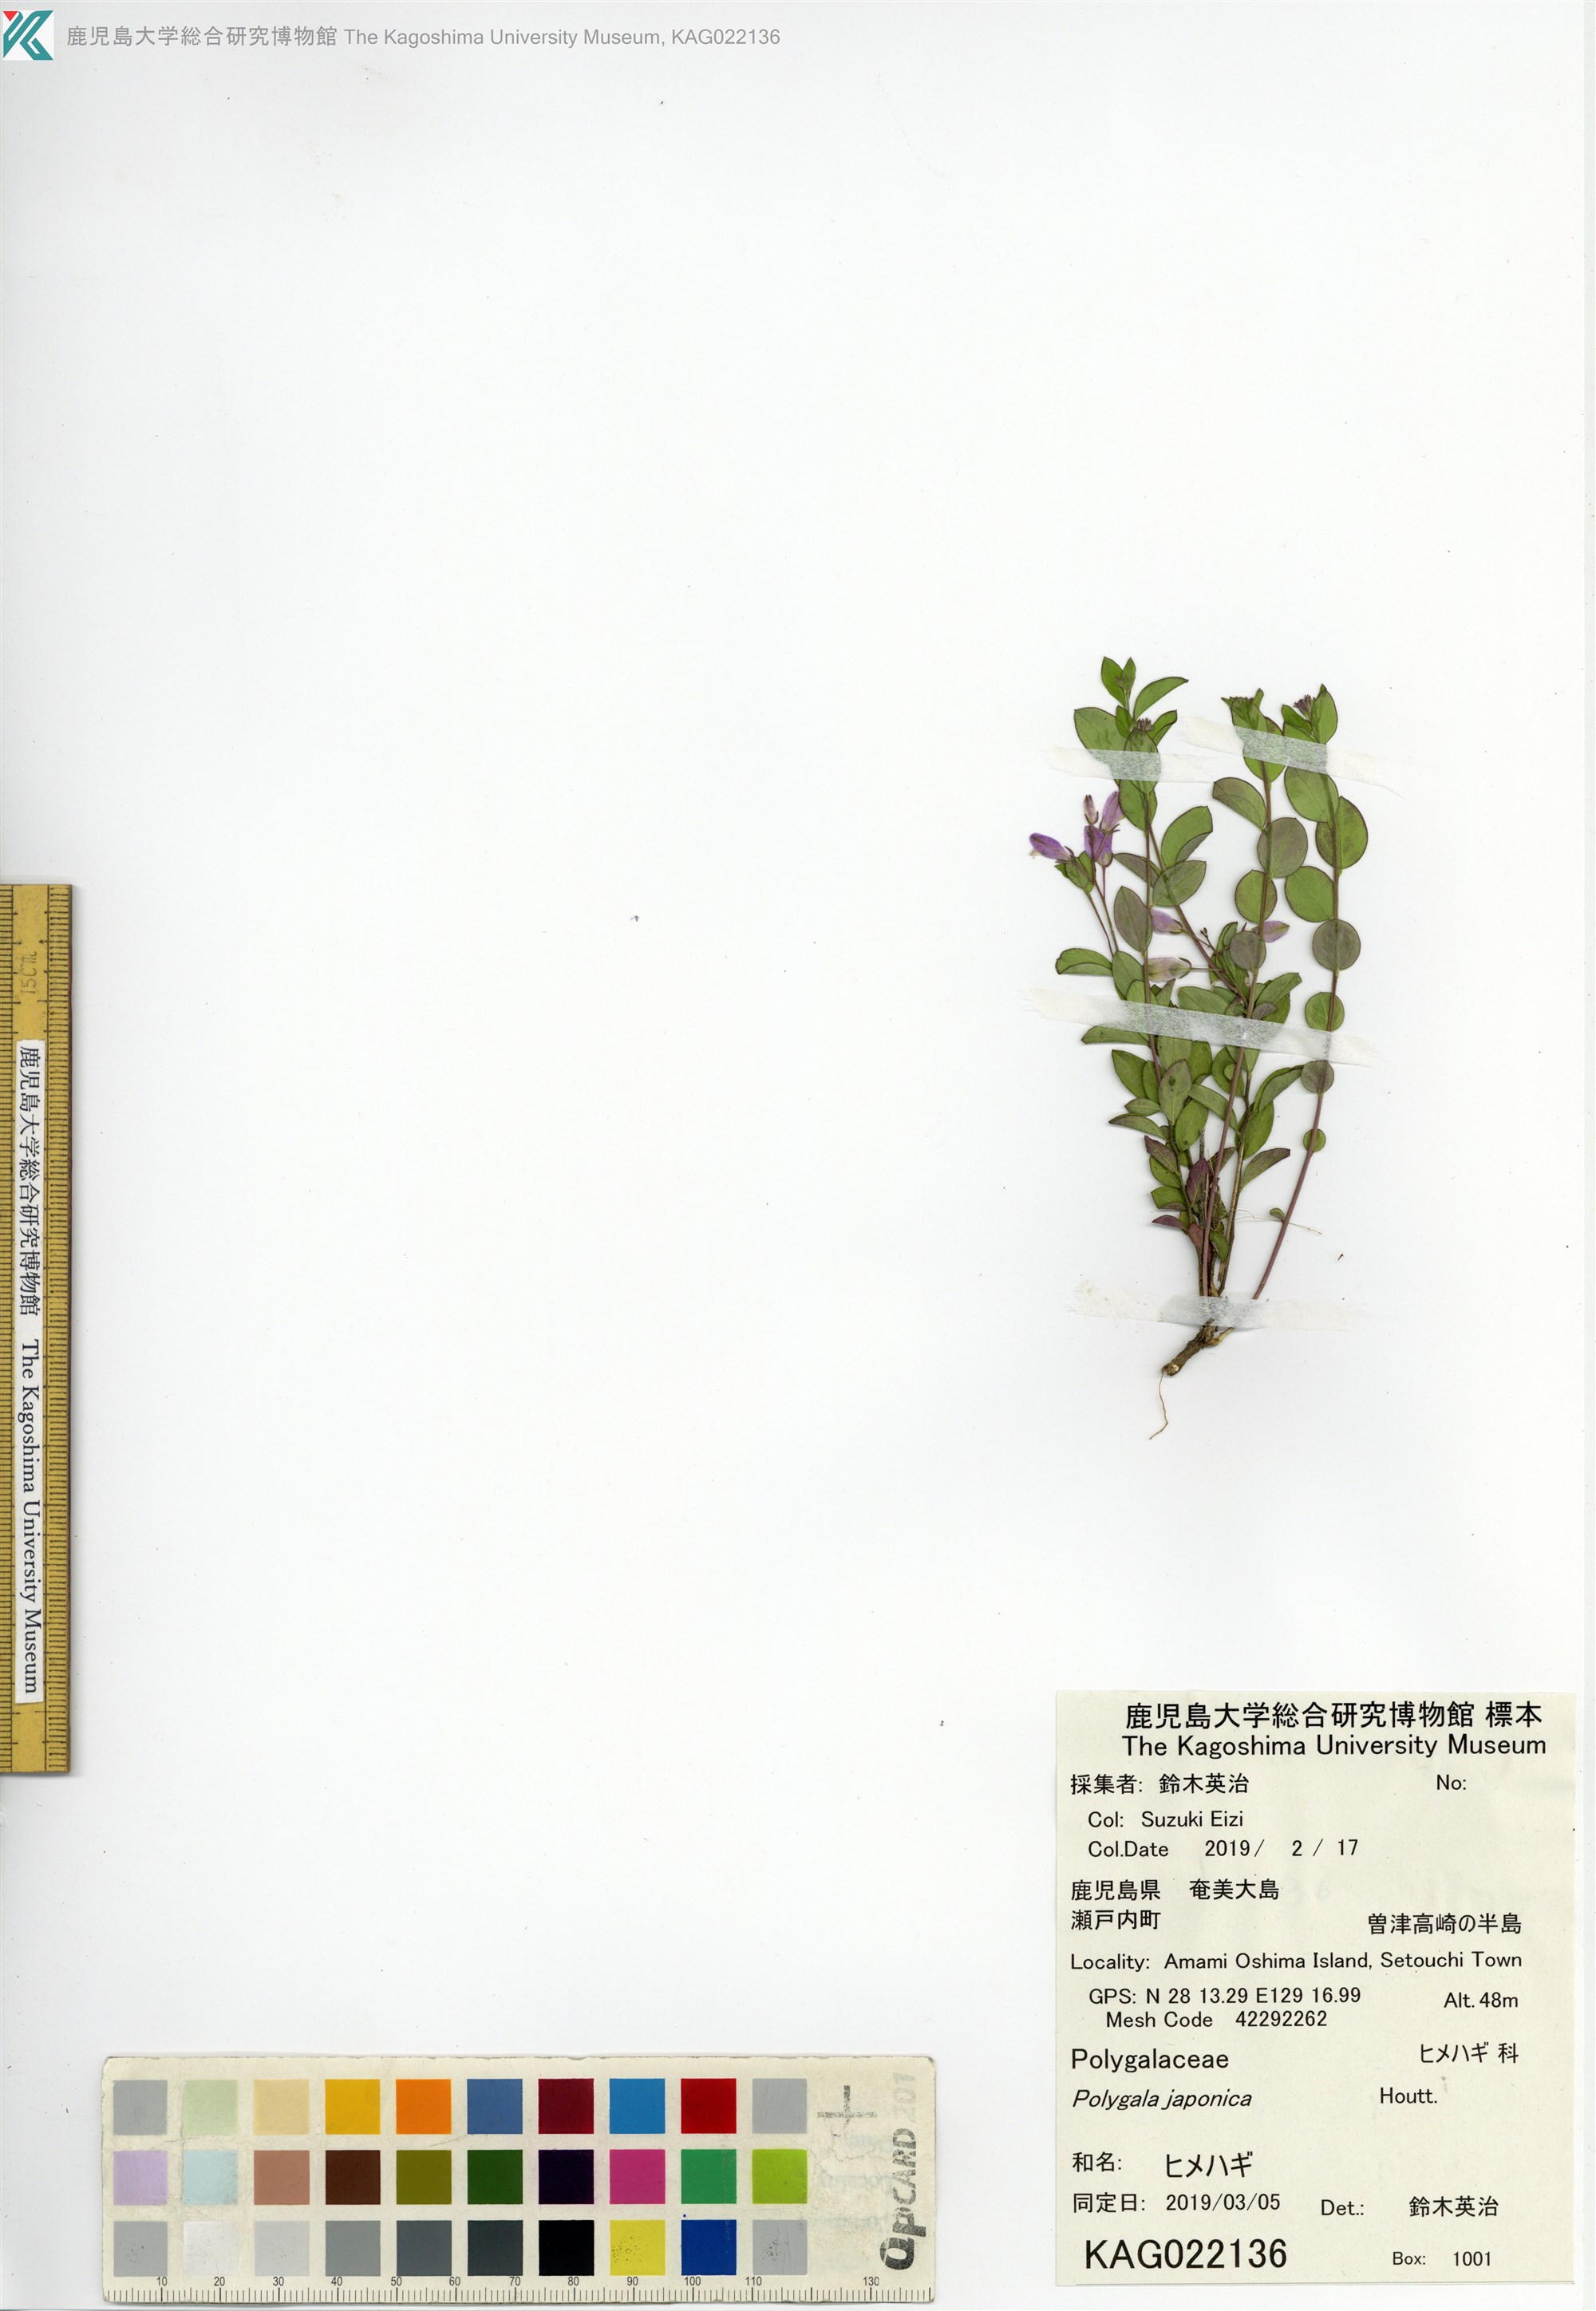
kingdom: Plantae
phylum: Tracheophyta
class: Magnoliopsida
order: Fabales
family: Polygalaceae
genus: Polygala
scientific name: Polygala japonica
